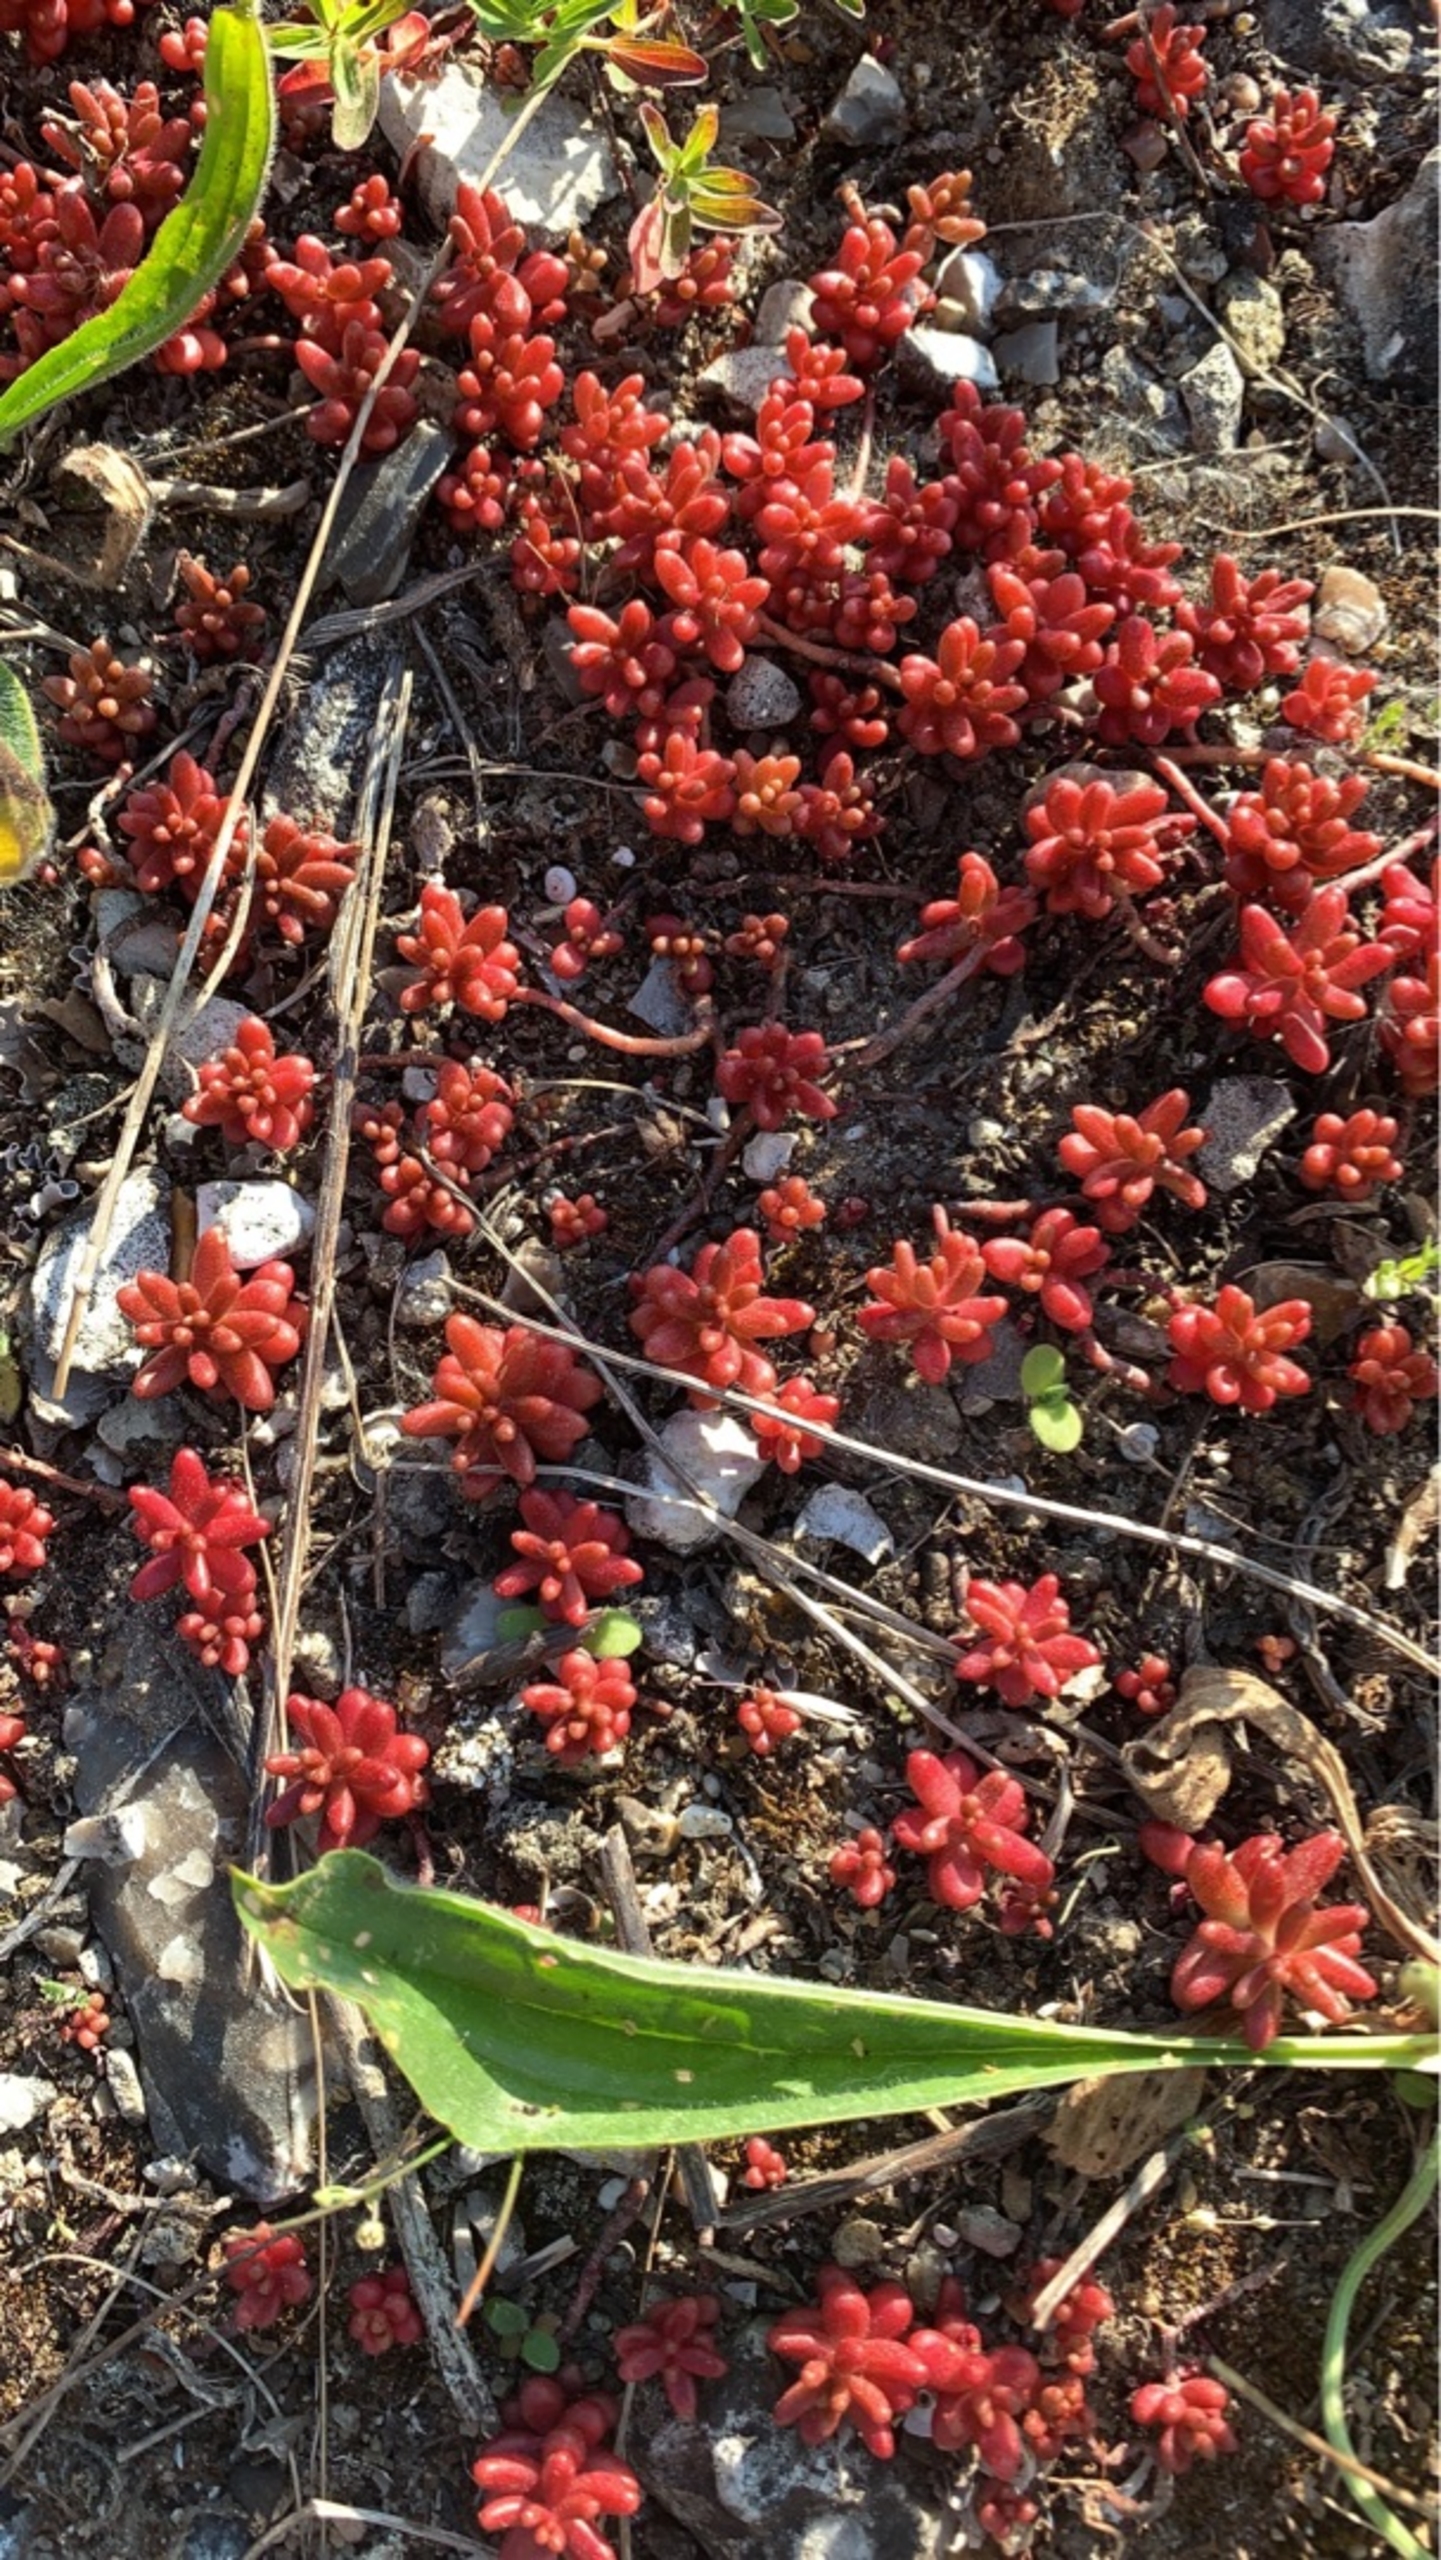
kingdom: Plantae
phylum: Tracheophyta
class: Magnoliopsida
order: Saxifragales
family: Crassulaceae
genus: Sedum
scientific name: Sedum album
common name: Hvid stenurt
